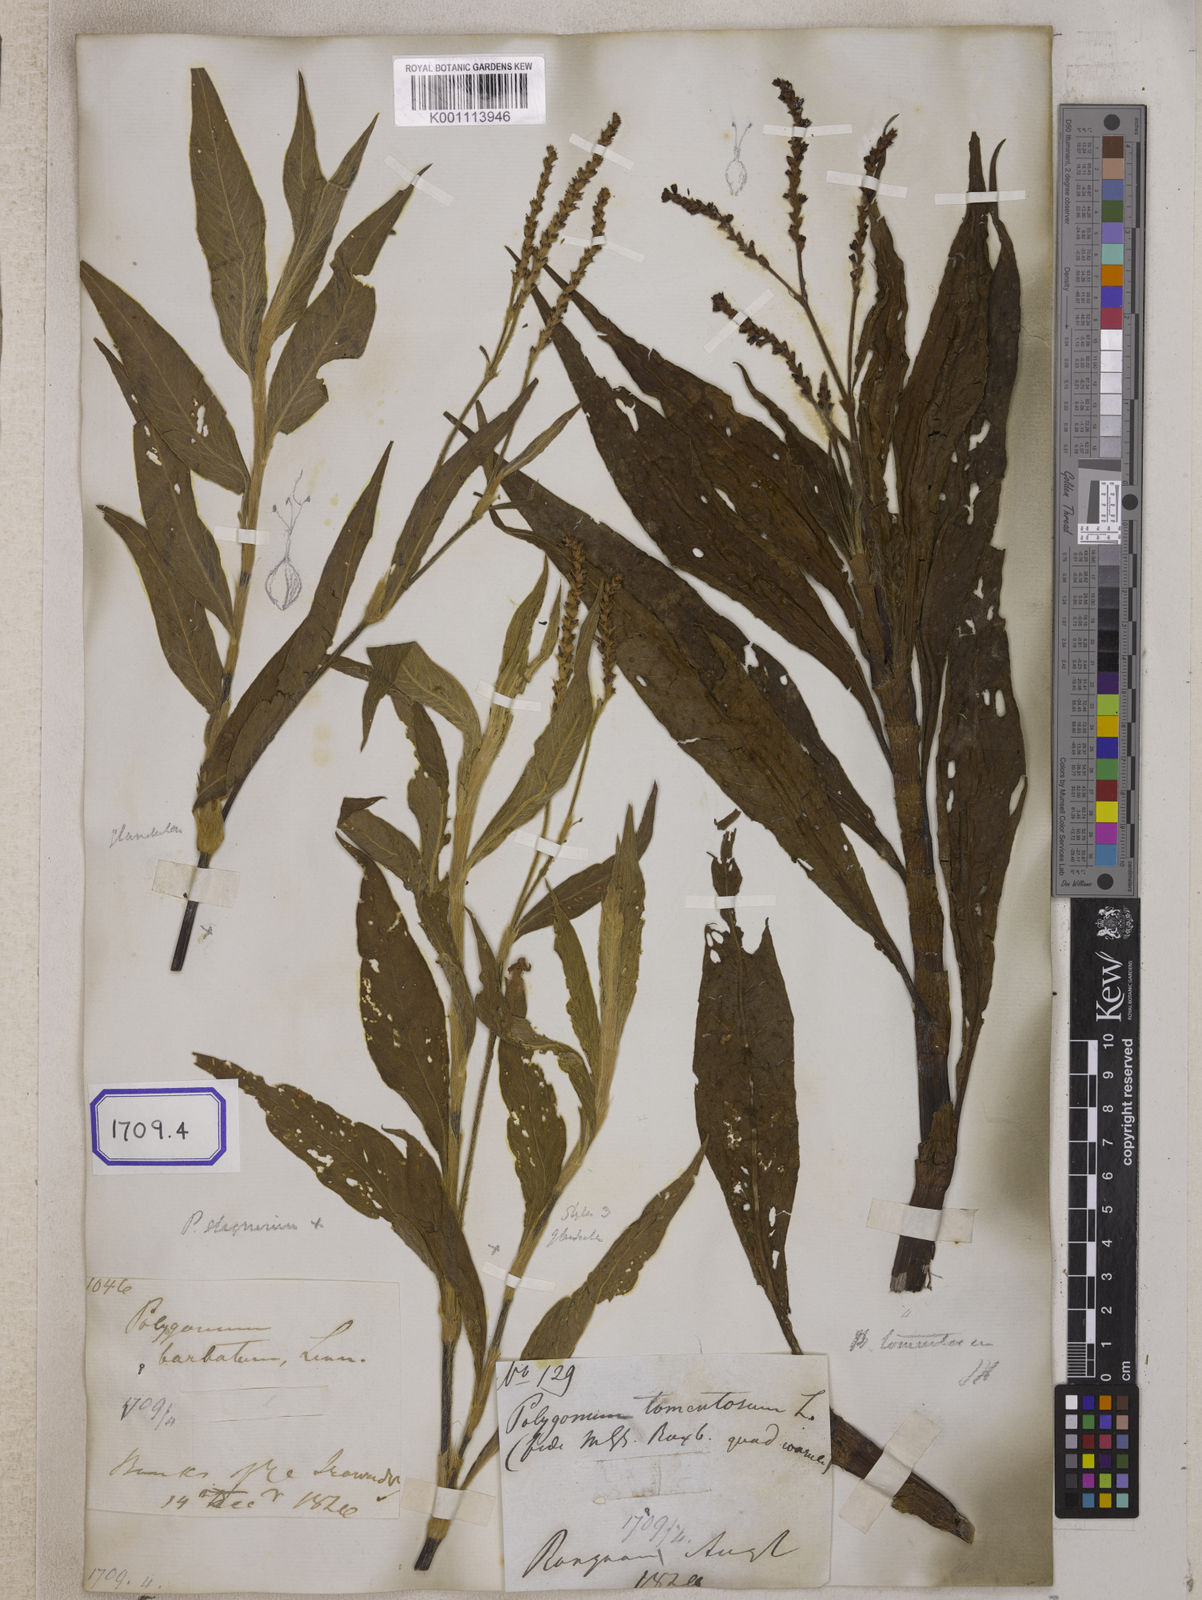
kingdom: Plantae
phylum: Tracheophyta
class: Magnoliopsida
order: Caryophyllales
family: Polygonaceae
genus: Persicaria
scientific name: Persicaria madagascariensis
